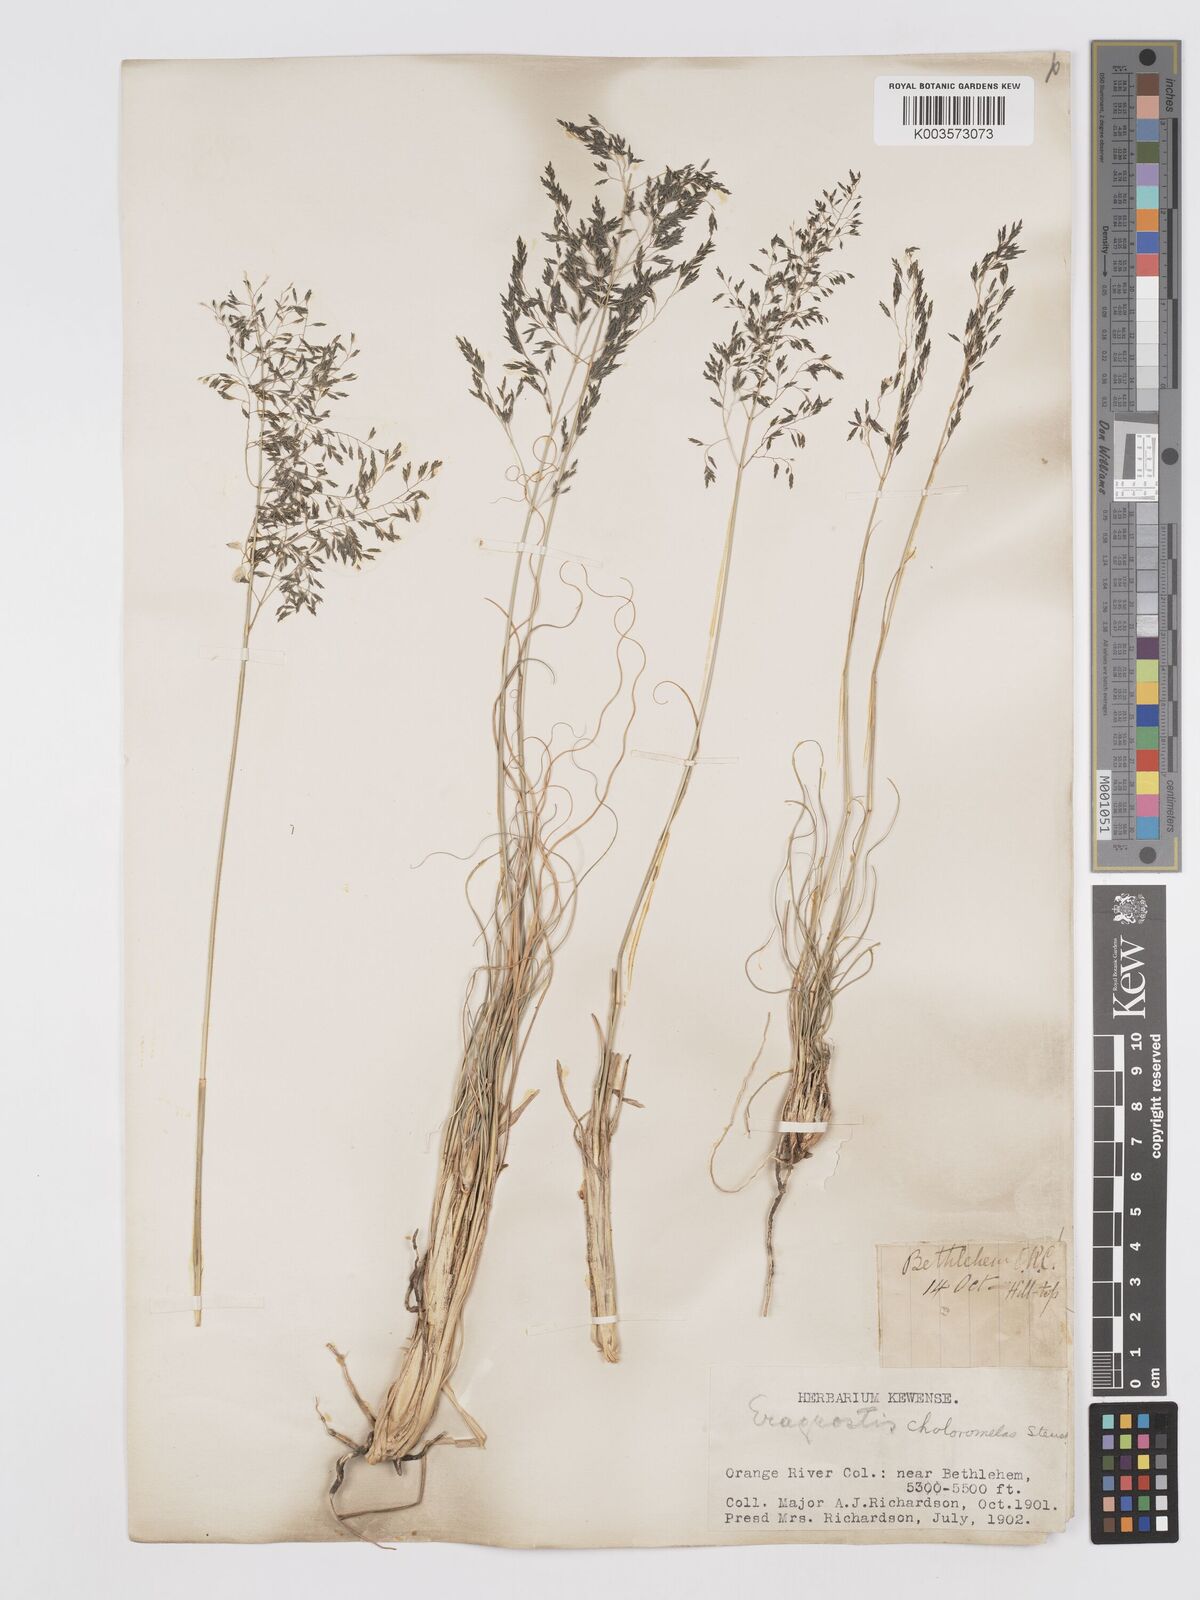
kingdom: Plantae
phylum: Tracheophyta
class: Liliopsida
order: Poales
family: Poaceae
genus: Eragrostis
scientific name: Eragrostis curvula
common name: African love-grass
